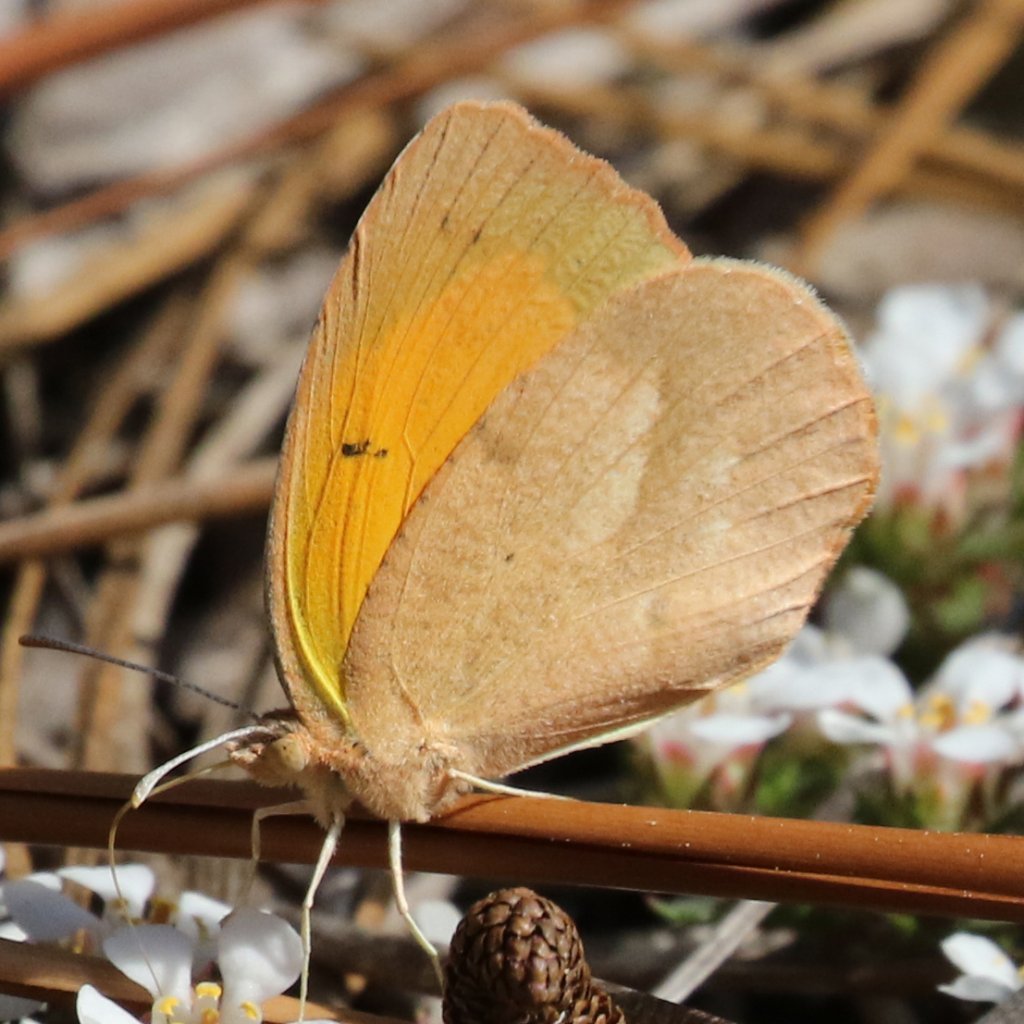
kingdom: Animalia
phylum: Arthropoda
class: Insecta
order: Lepidoptera
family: Pieridae
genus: Abaeis
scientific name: Abaeis nicippe
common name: Sleepy Orange
